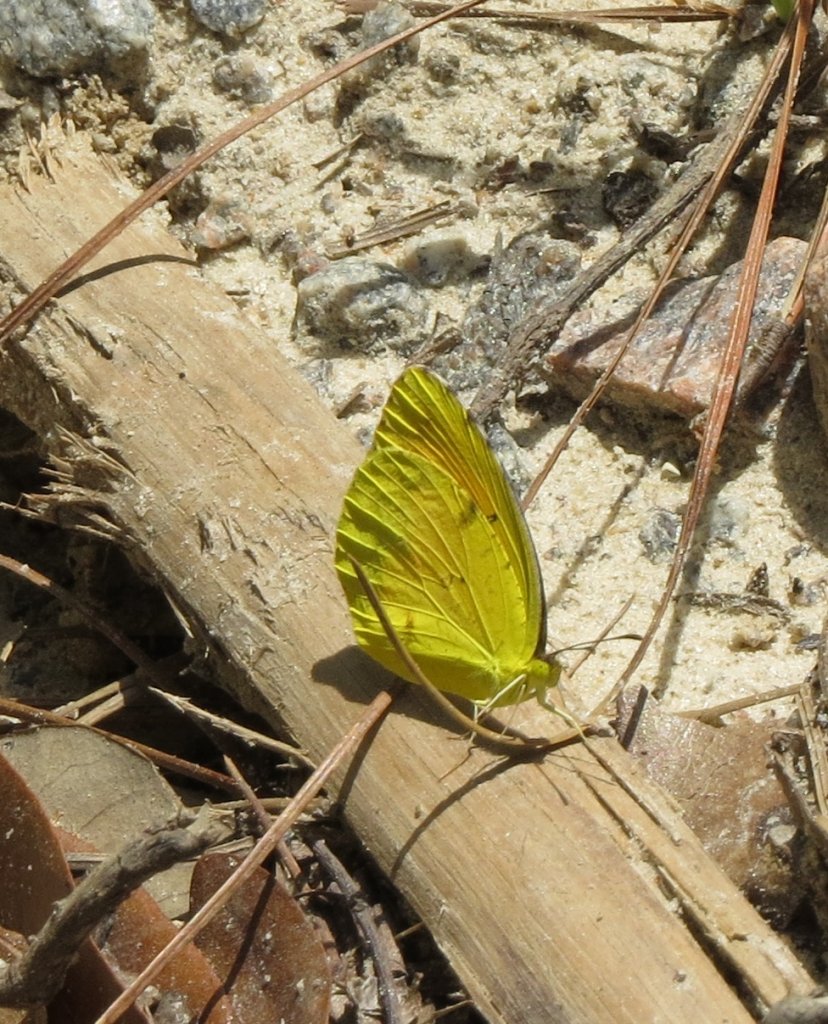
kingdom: Animalia
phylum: Arthropoda
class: Insecta
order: Lepidoptera
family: Pieridae
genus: Abaeis
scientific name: Abaeis nicippe
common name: Sleepy Orange
